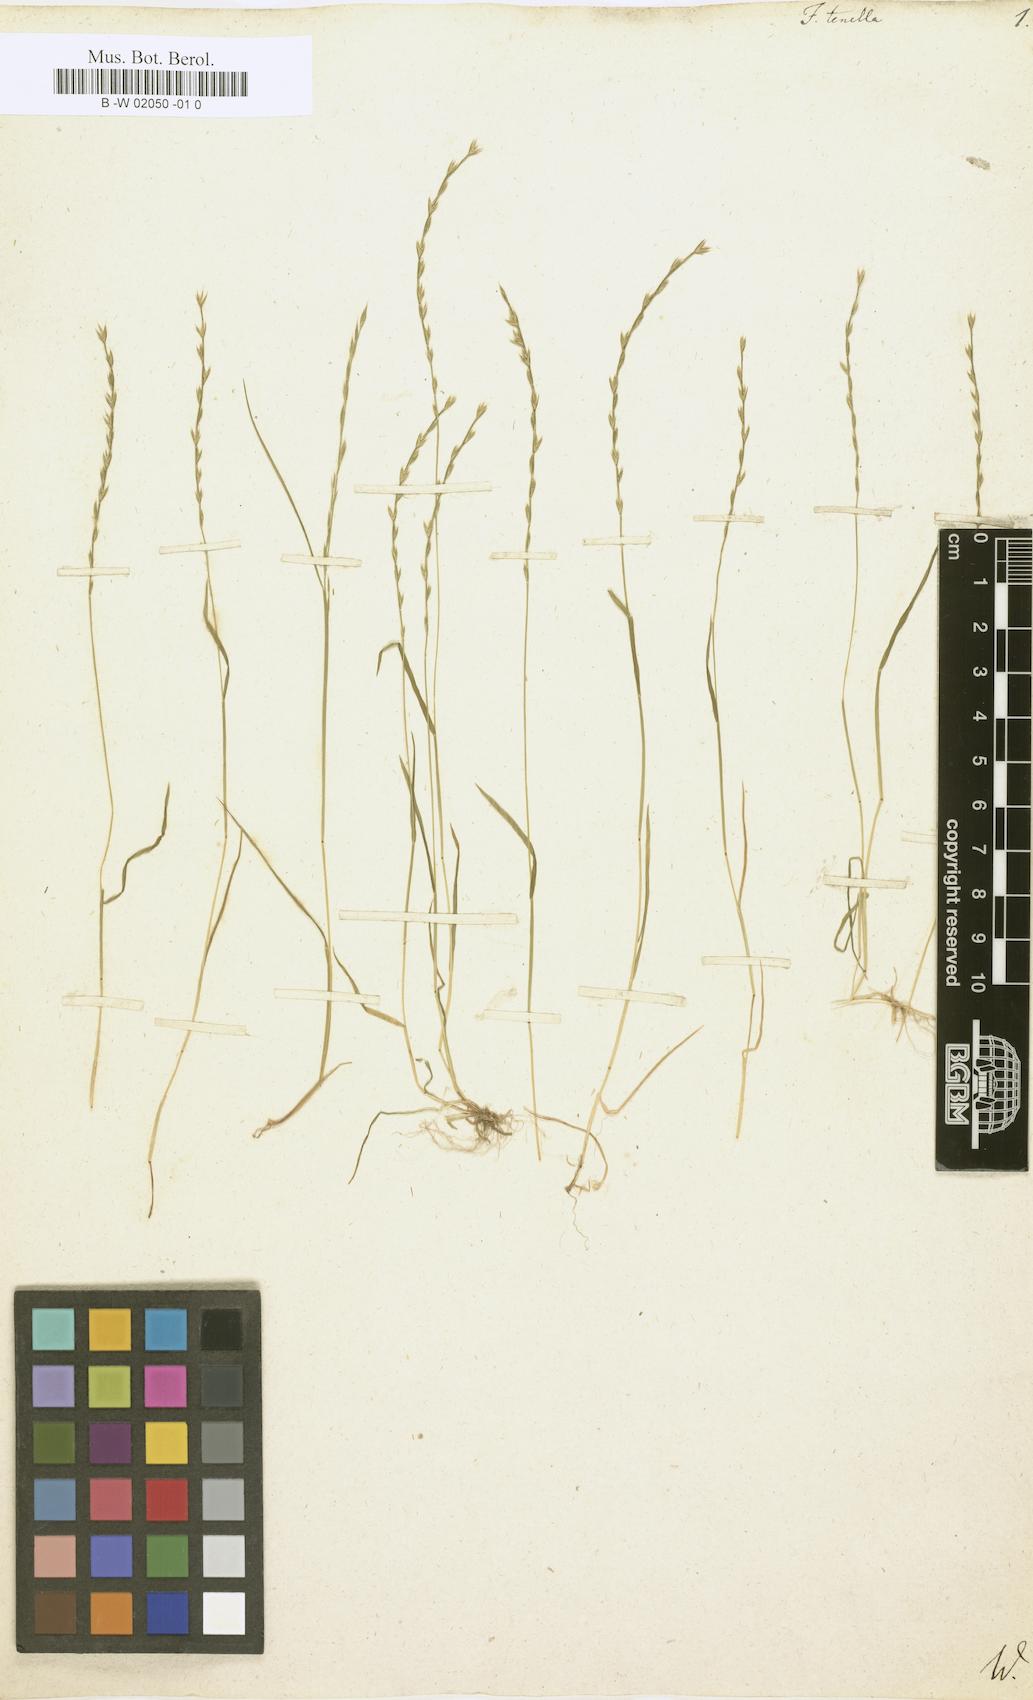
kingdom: Plantae
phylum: Tracheophyta
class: Liliopsida
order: Poales
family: Poaceae
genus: Festuca
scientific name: Festuca octoflora
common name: Sixweeks grass
